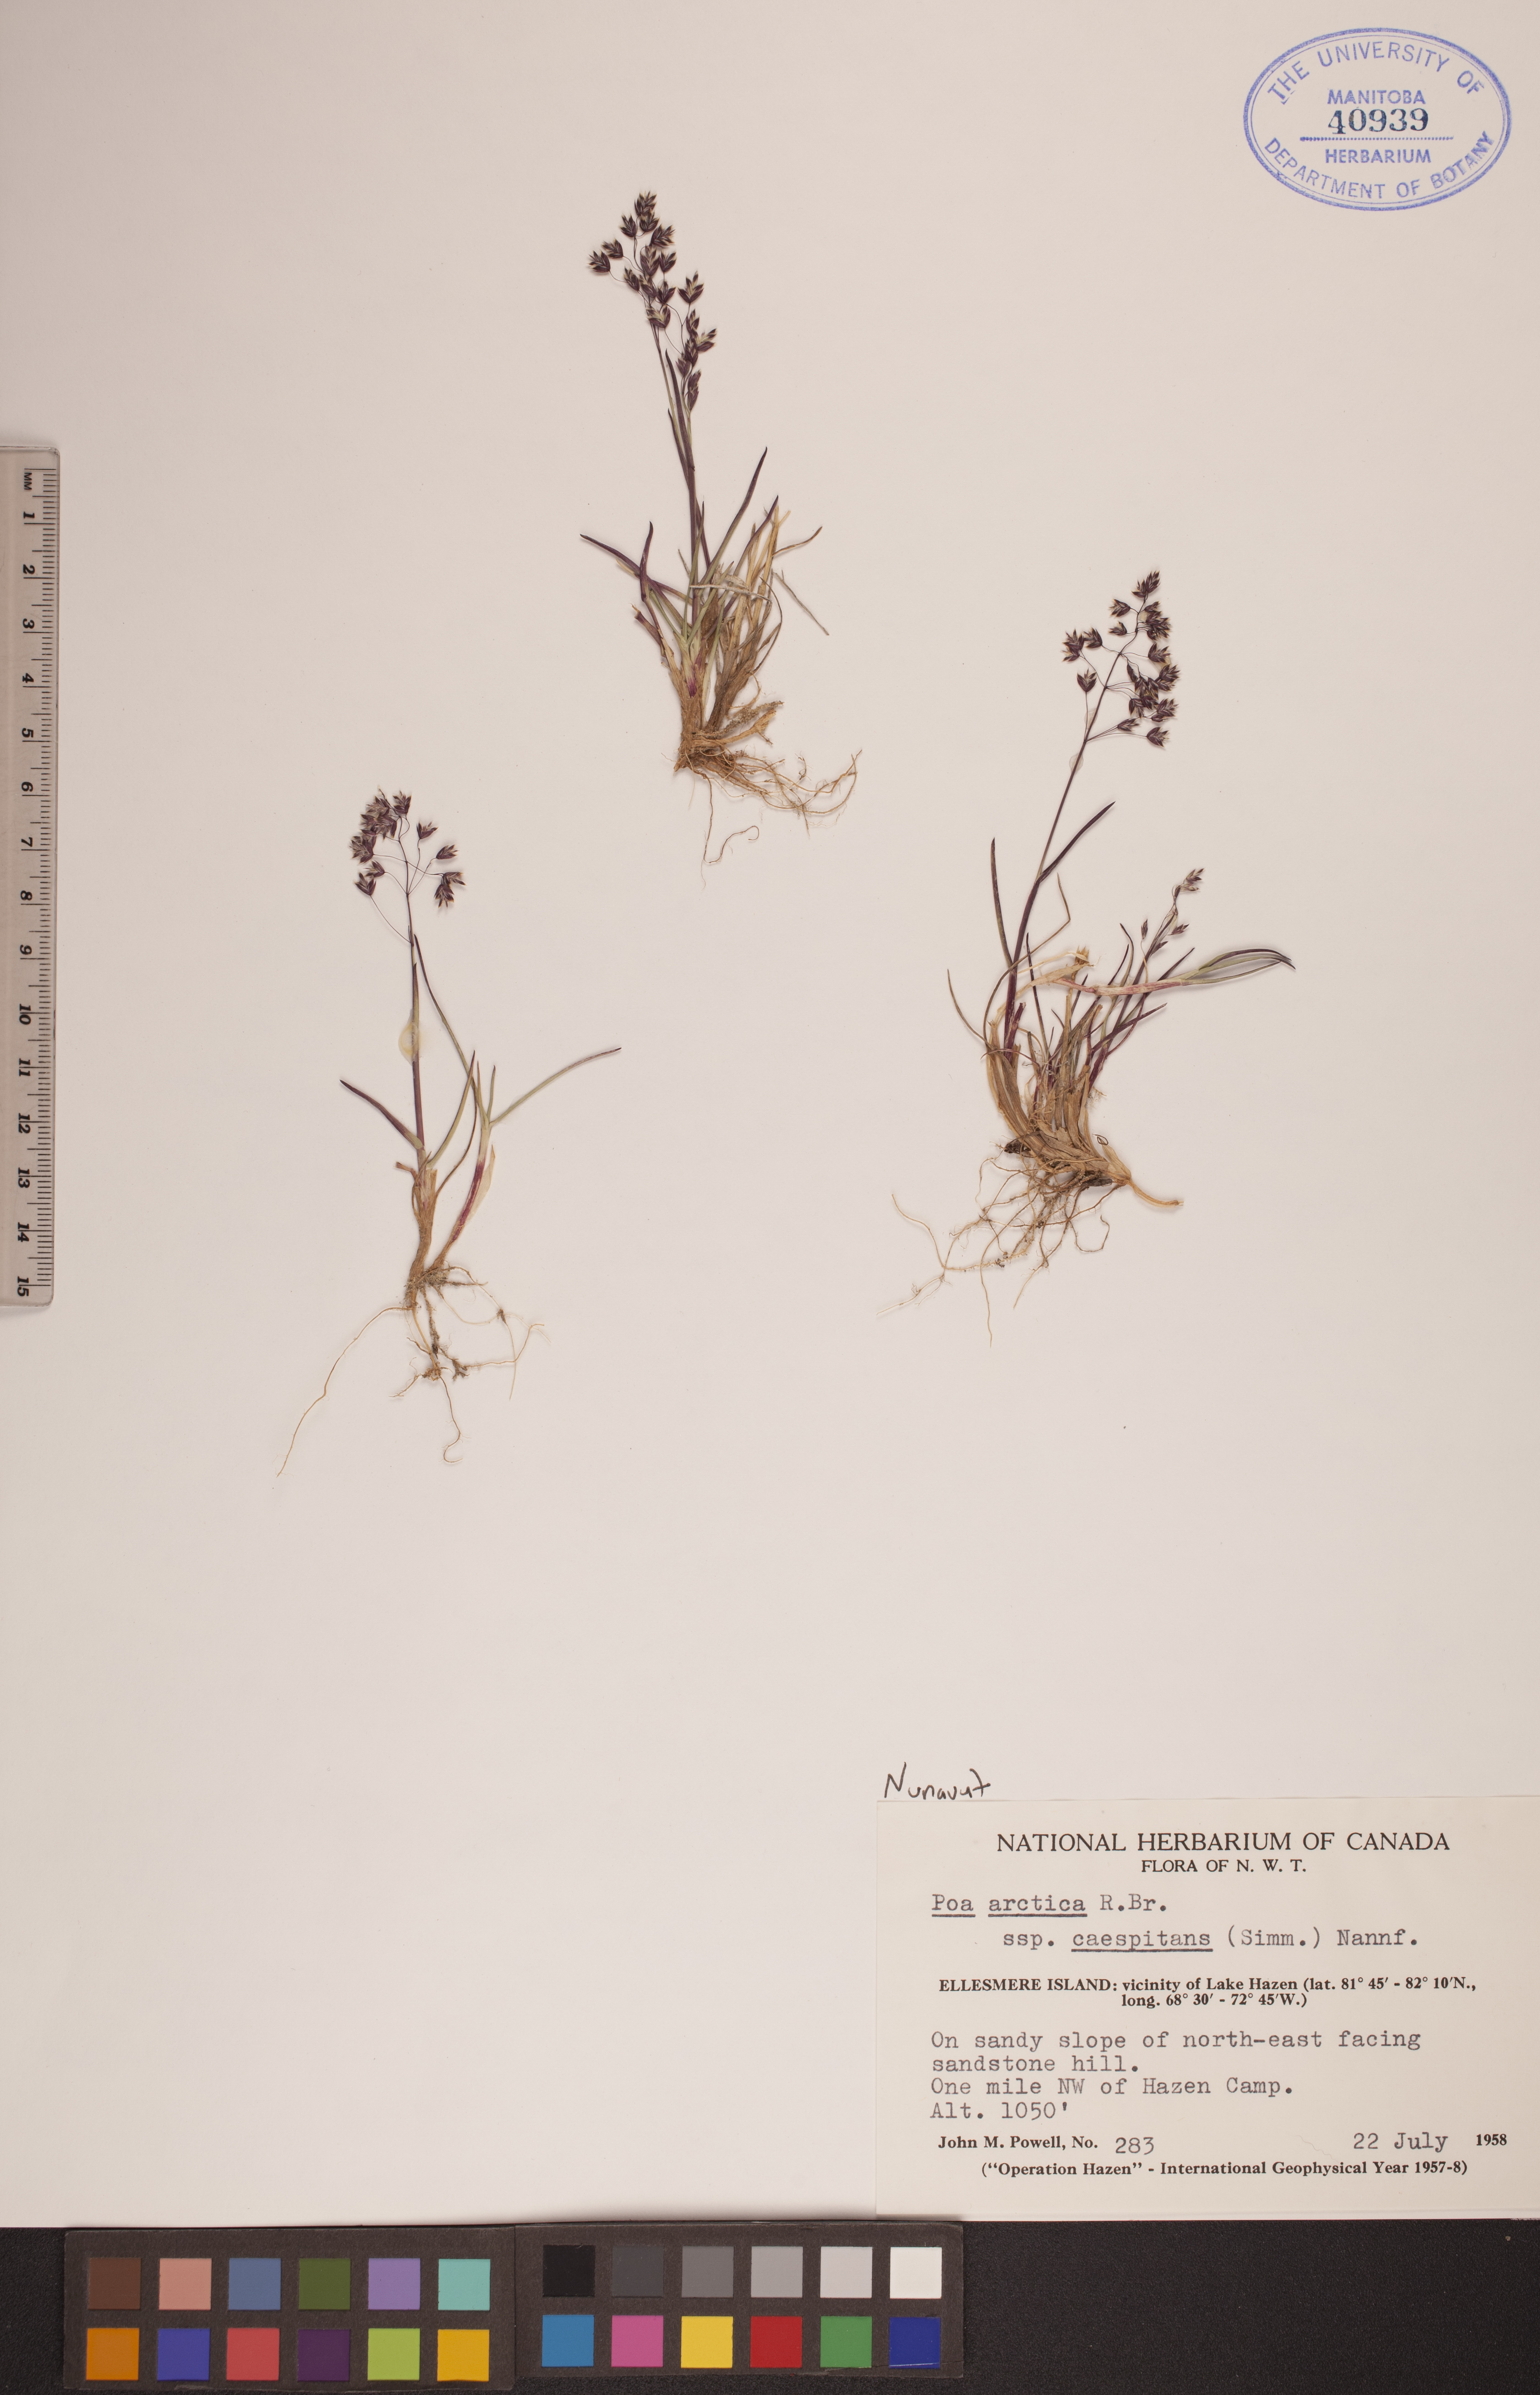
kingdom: Plantae
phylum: Tracheophyta
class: Liliopsida
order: Poales
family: Poaceae
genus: Poa
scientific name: Poa tolmatchewii
